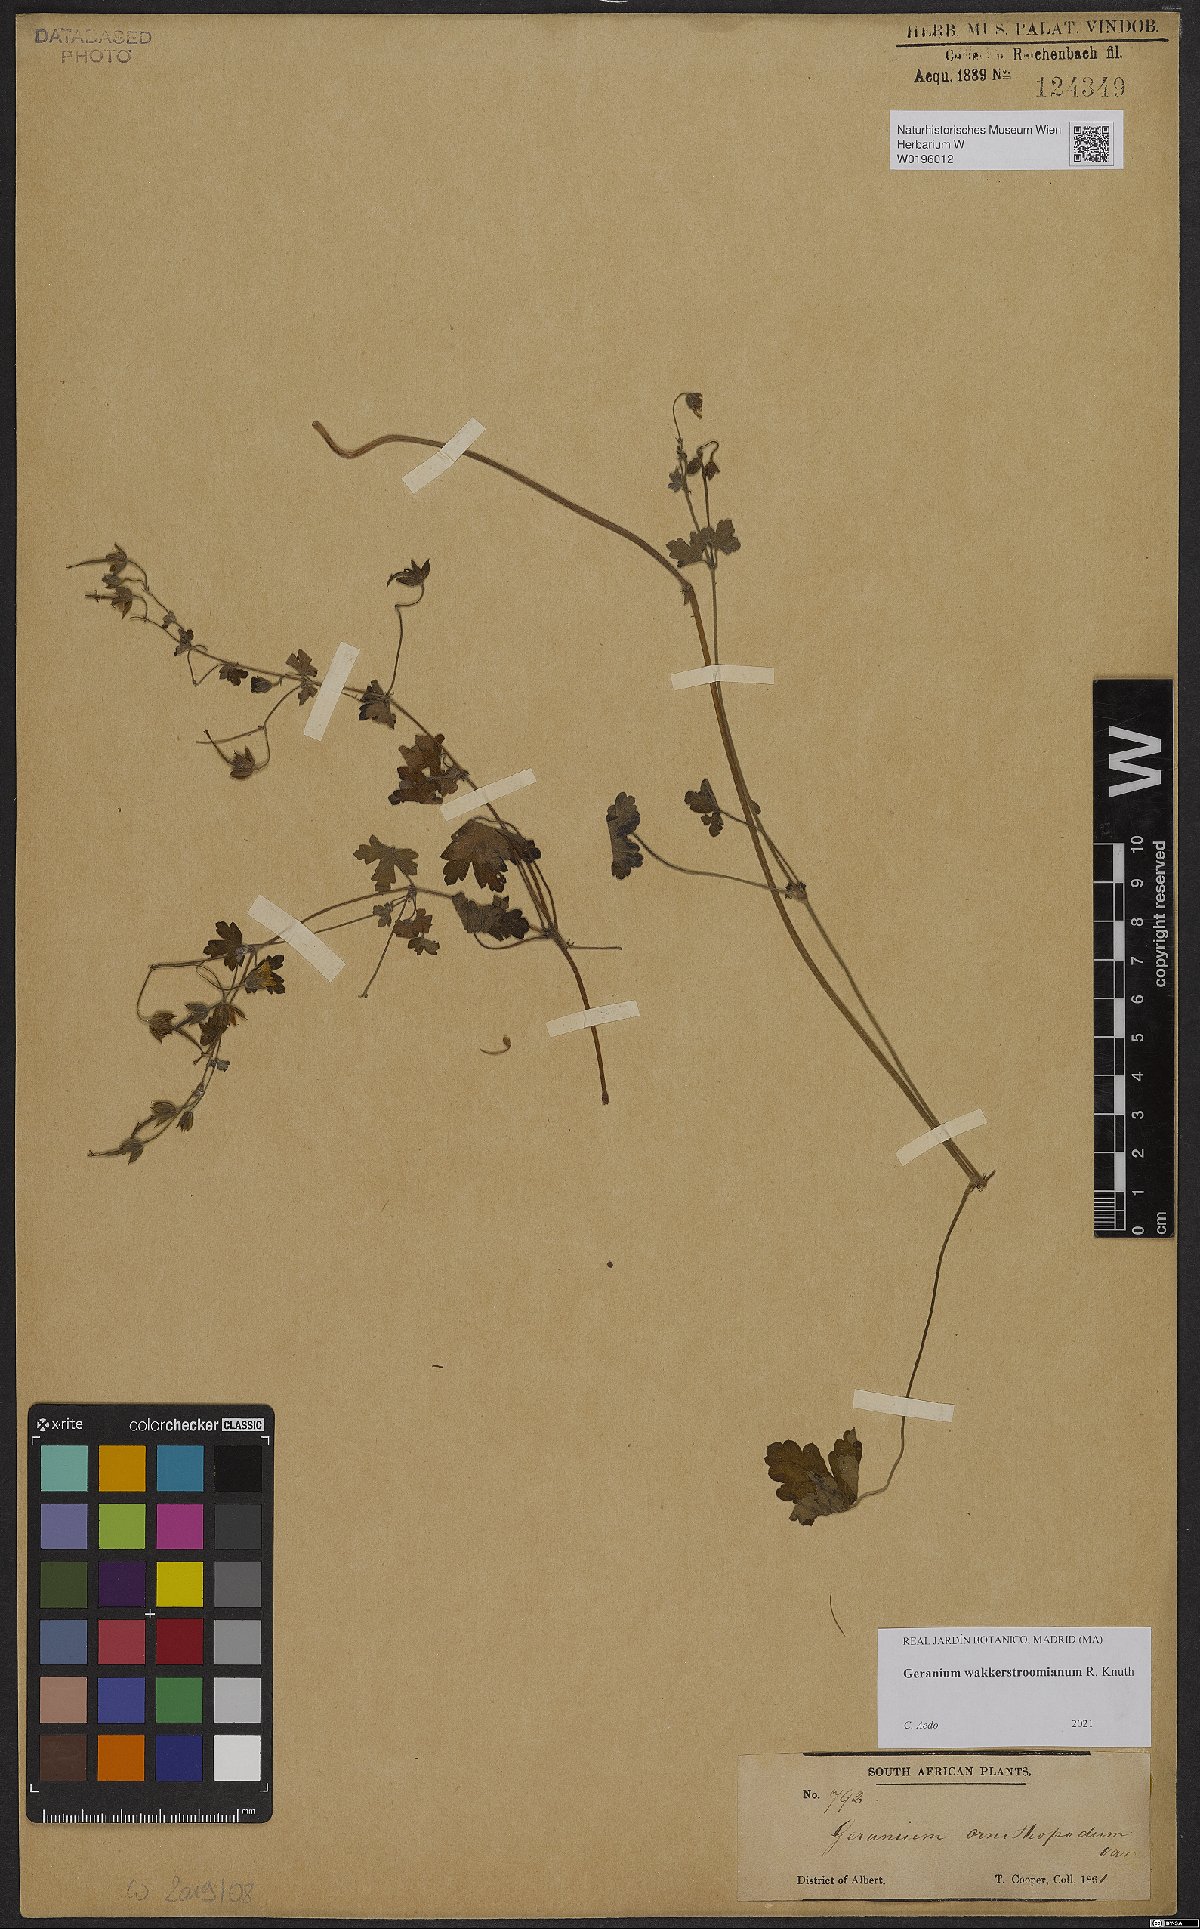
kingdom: Plantae
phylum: Tracheophyta
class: Magnoliopsida
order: Geraniales
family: Geraniaceae
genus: Geranium
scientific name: Geranium wakkerstroomianum
